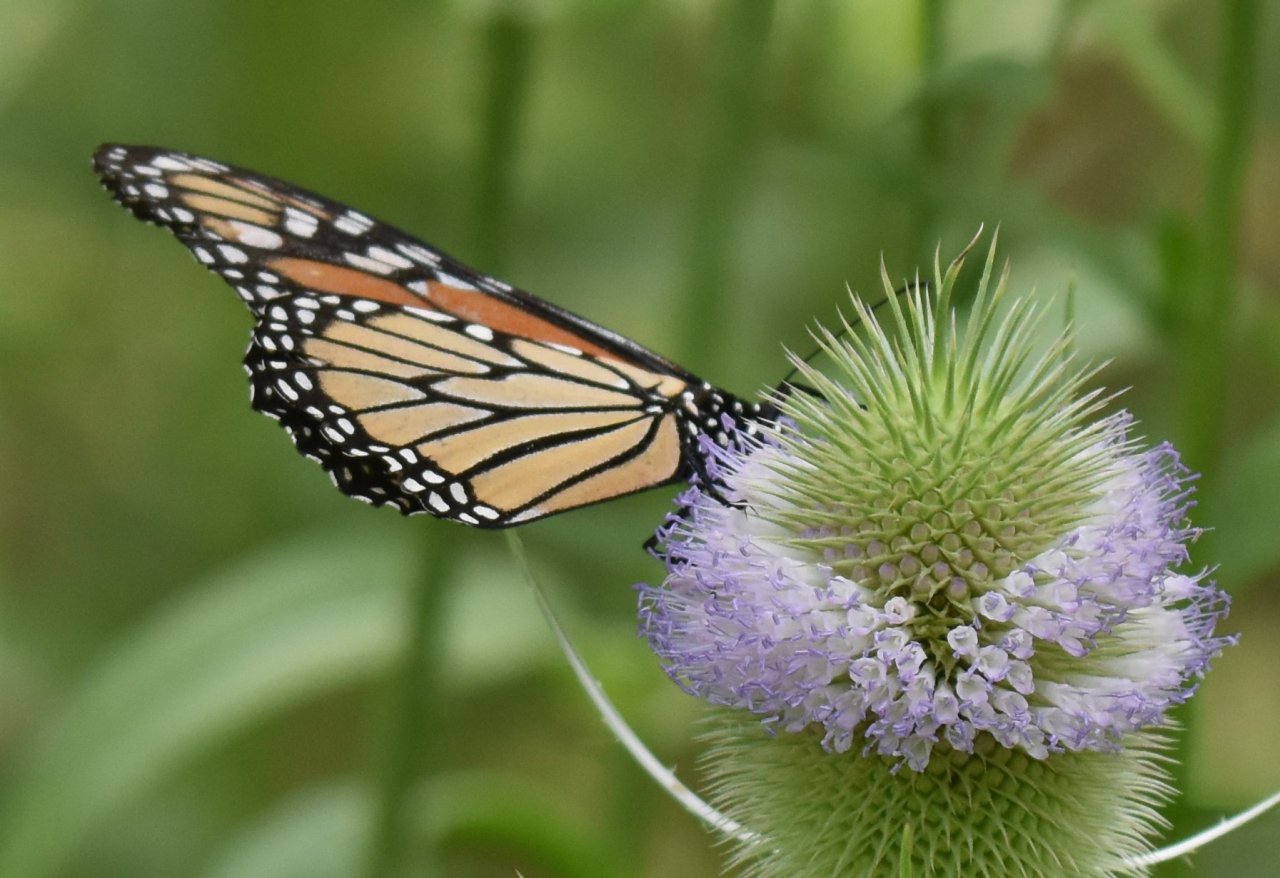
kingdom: Animalia
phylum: Arthropoda
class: Insecta
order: Lepidoptera
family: Nymphalidae
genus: Danaus
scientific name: Danaus plexippus
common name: Monarch
